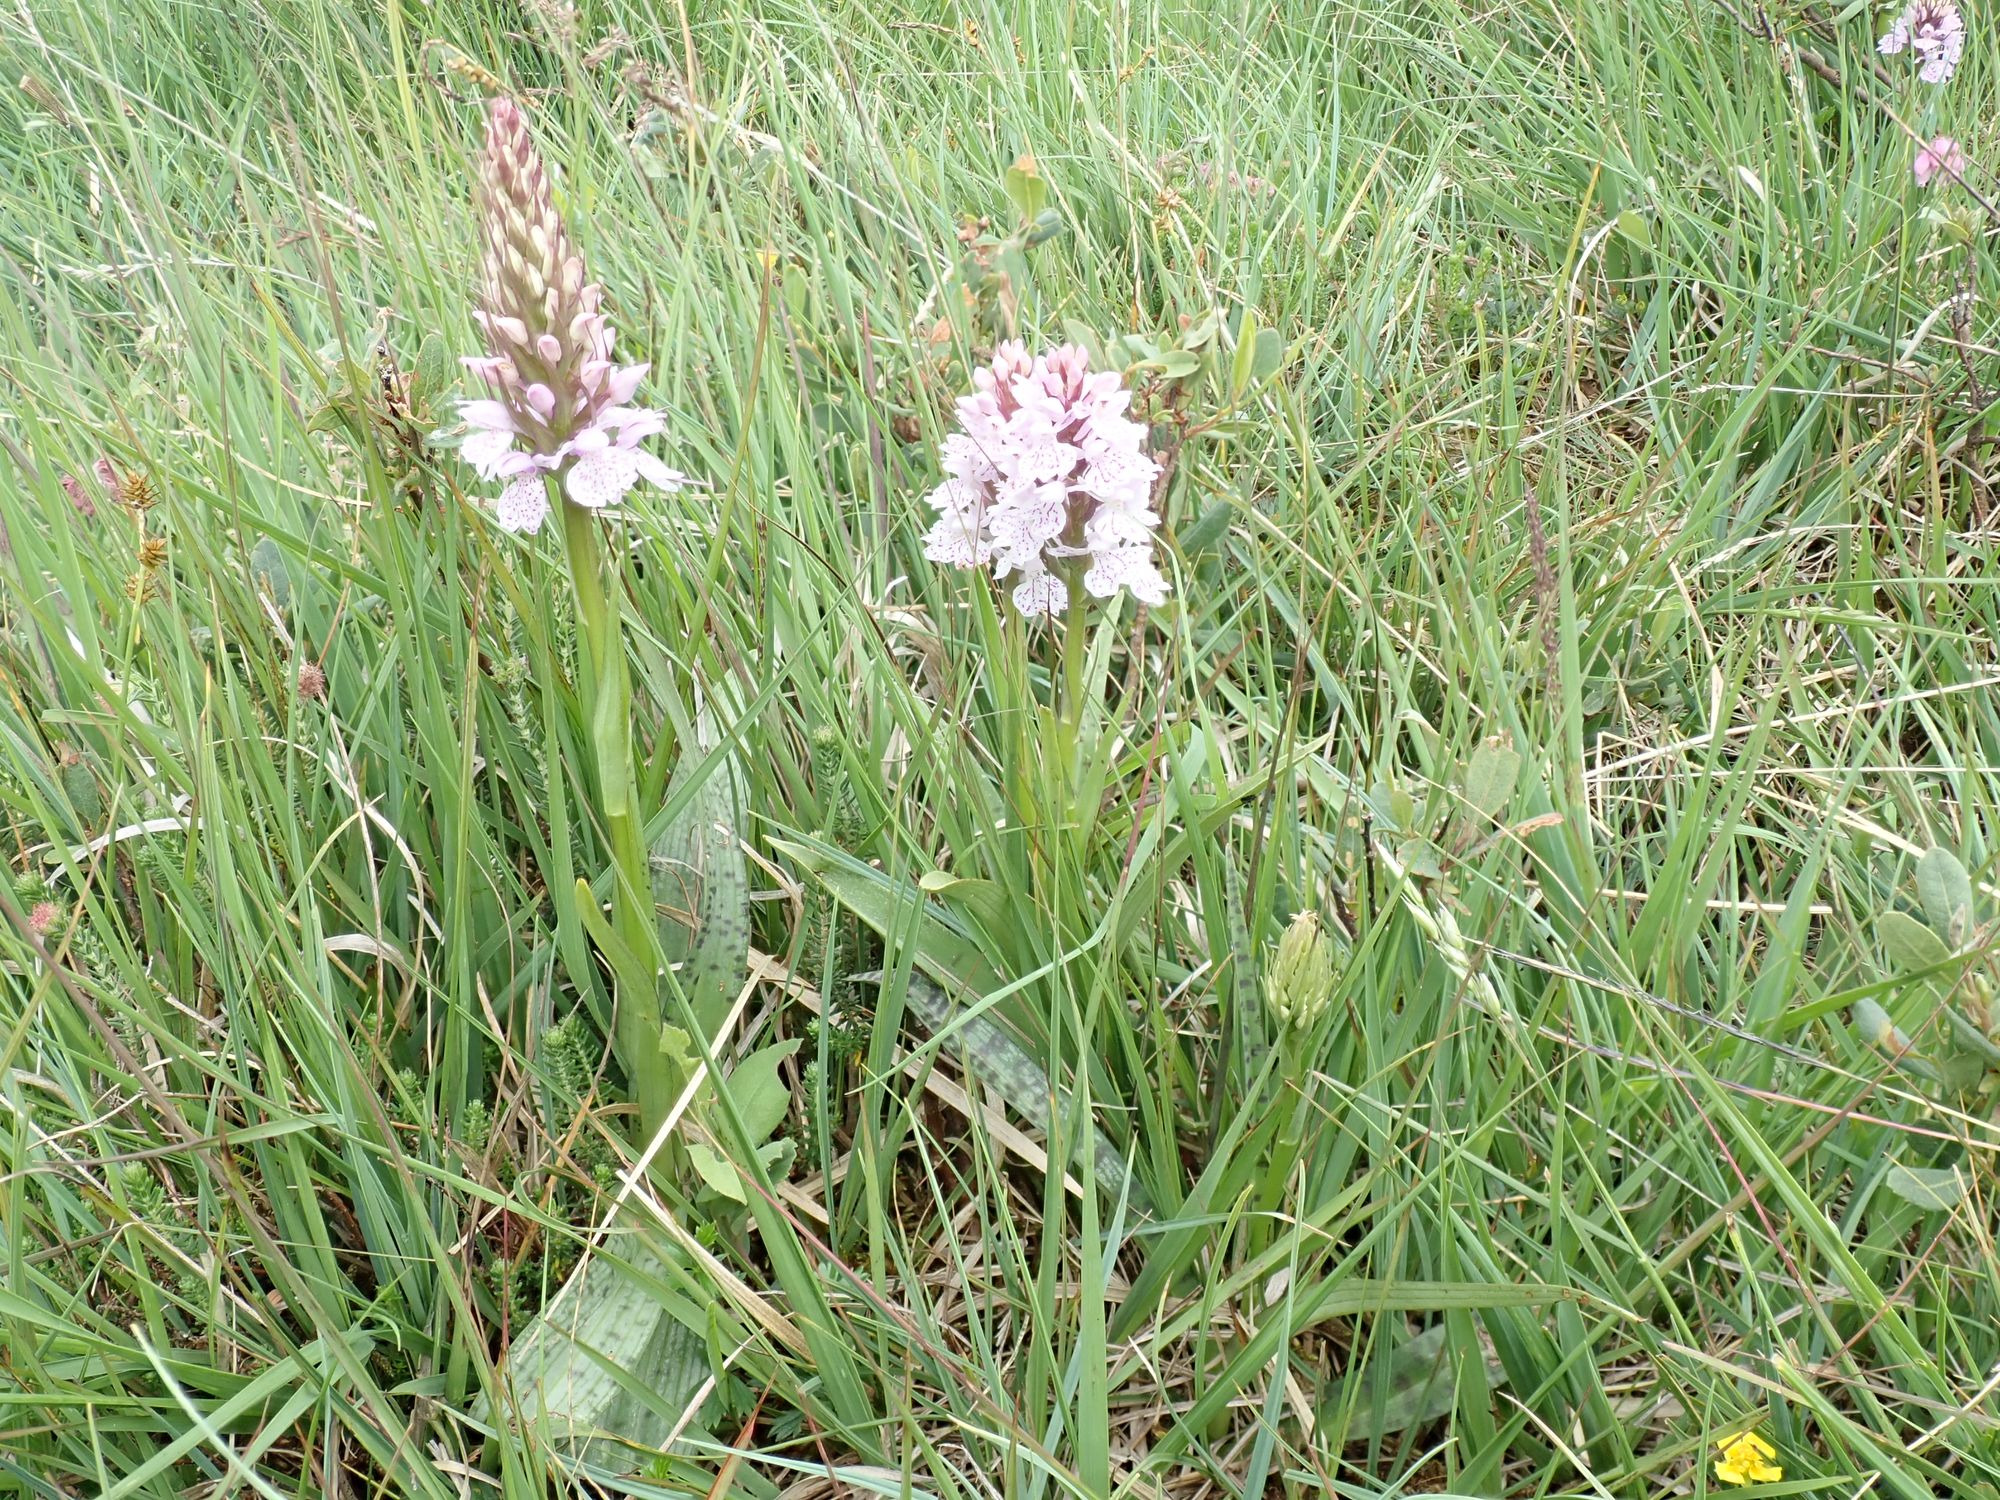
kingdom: Plantae
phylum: Tracheophyta
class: Liliopsida
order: Asparagales
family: Orchidaceae
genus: Dactylorhiza
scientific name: Dactylorhiza maculata
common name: Plettet gøgeurt (underart)
